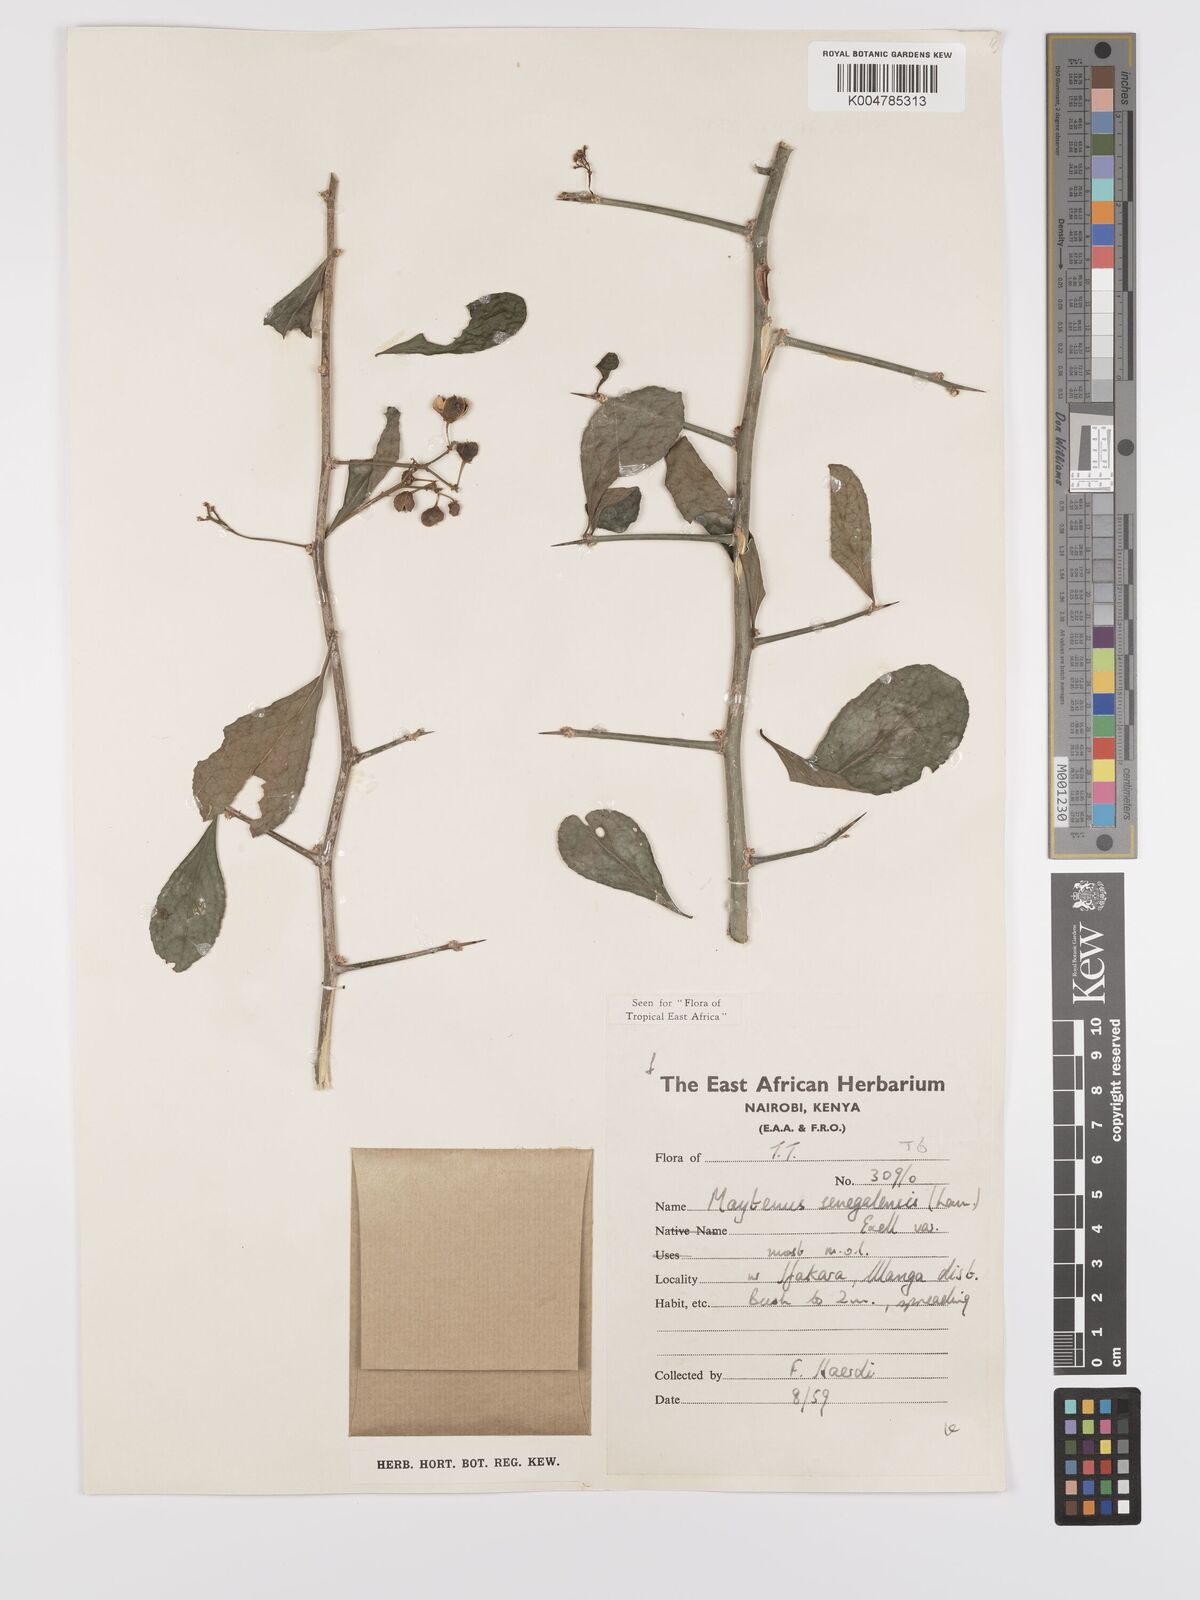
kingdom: Plantae
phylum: Tracheophyta
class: Magnoliopsida
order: Celastrales
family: Celastraceae
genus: Gymnosporia
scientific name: Gymnosporia heterophylla
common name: Angle-stem spikethorn
